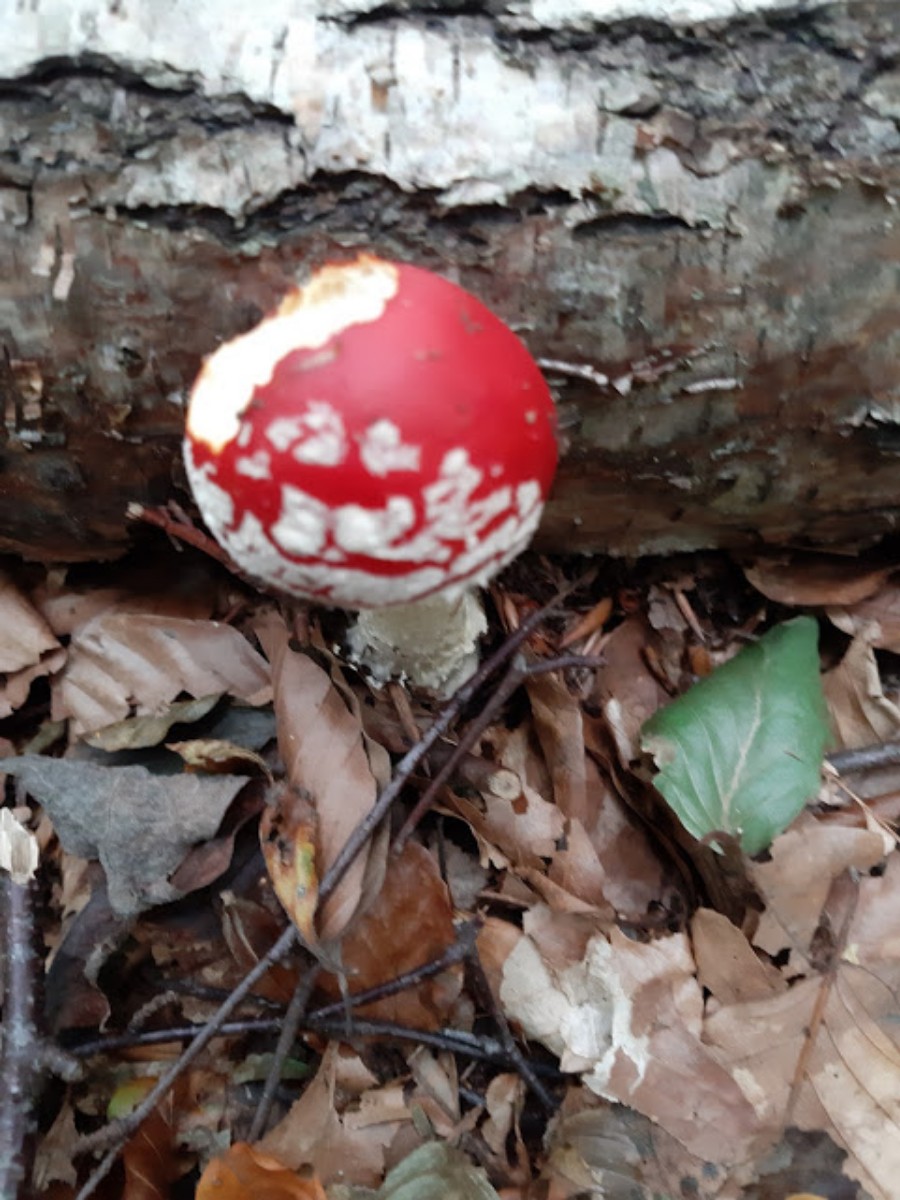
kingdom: Fungi
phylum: Basidiomycota
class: Agaricomycetes
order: Agaricales
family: Amanitaceae
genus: Amanita
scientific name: Amanita muscaria
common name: rød fluesvamp
